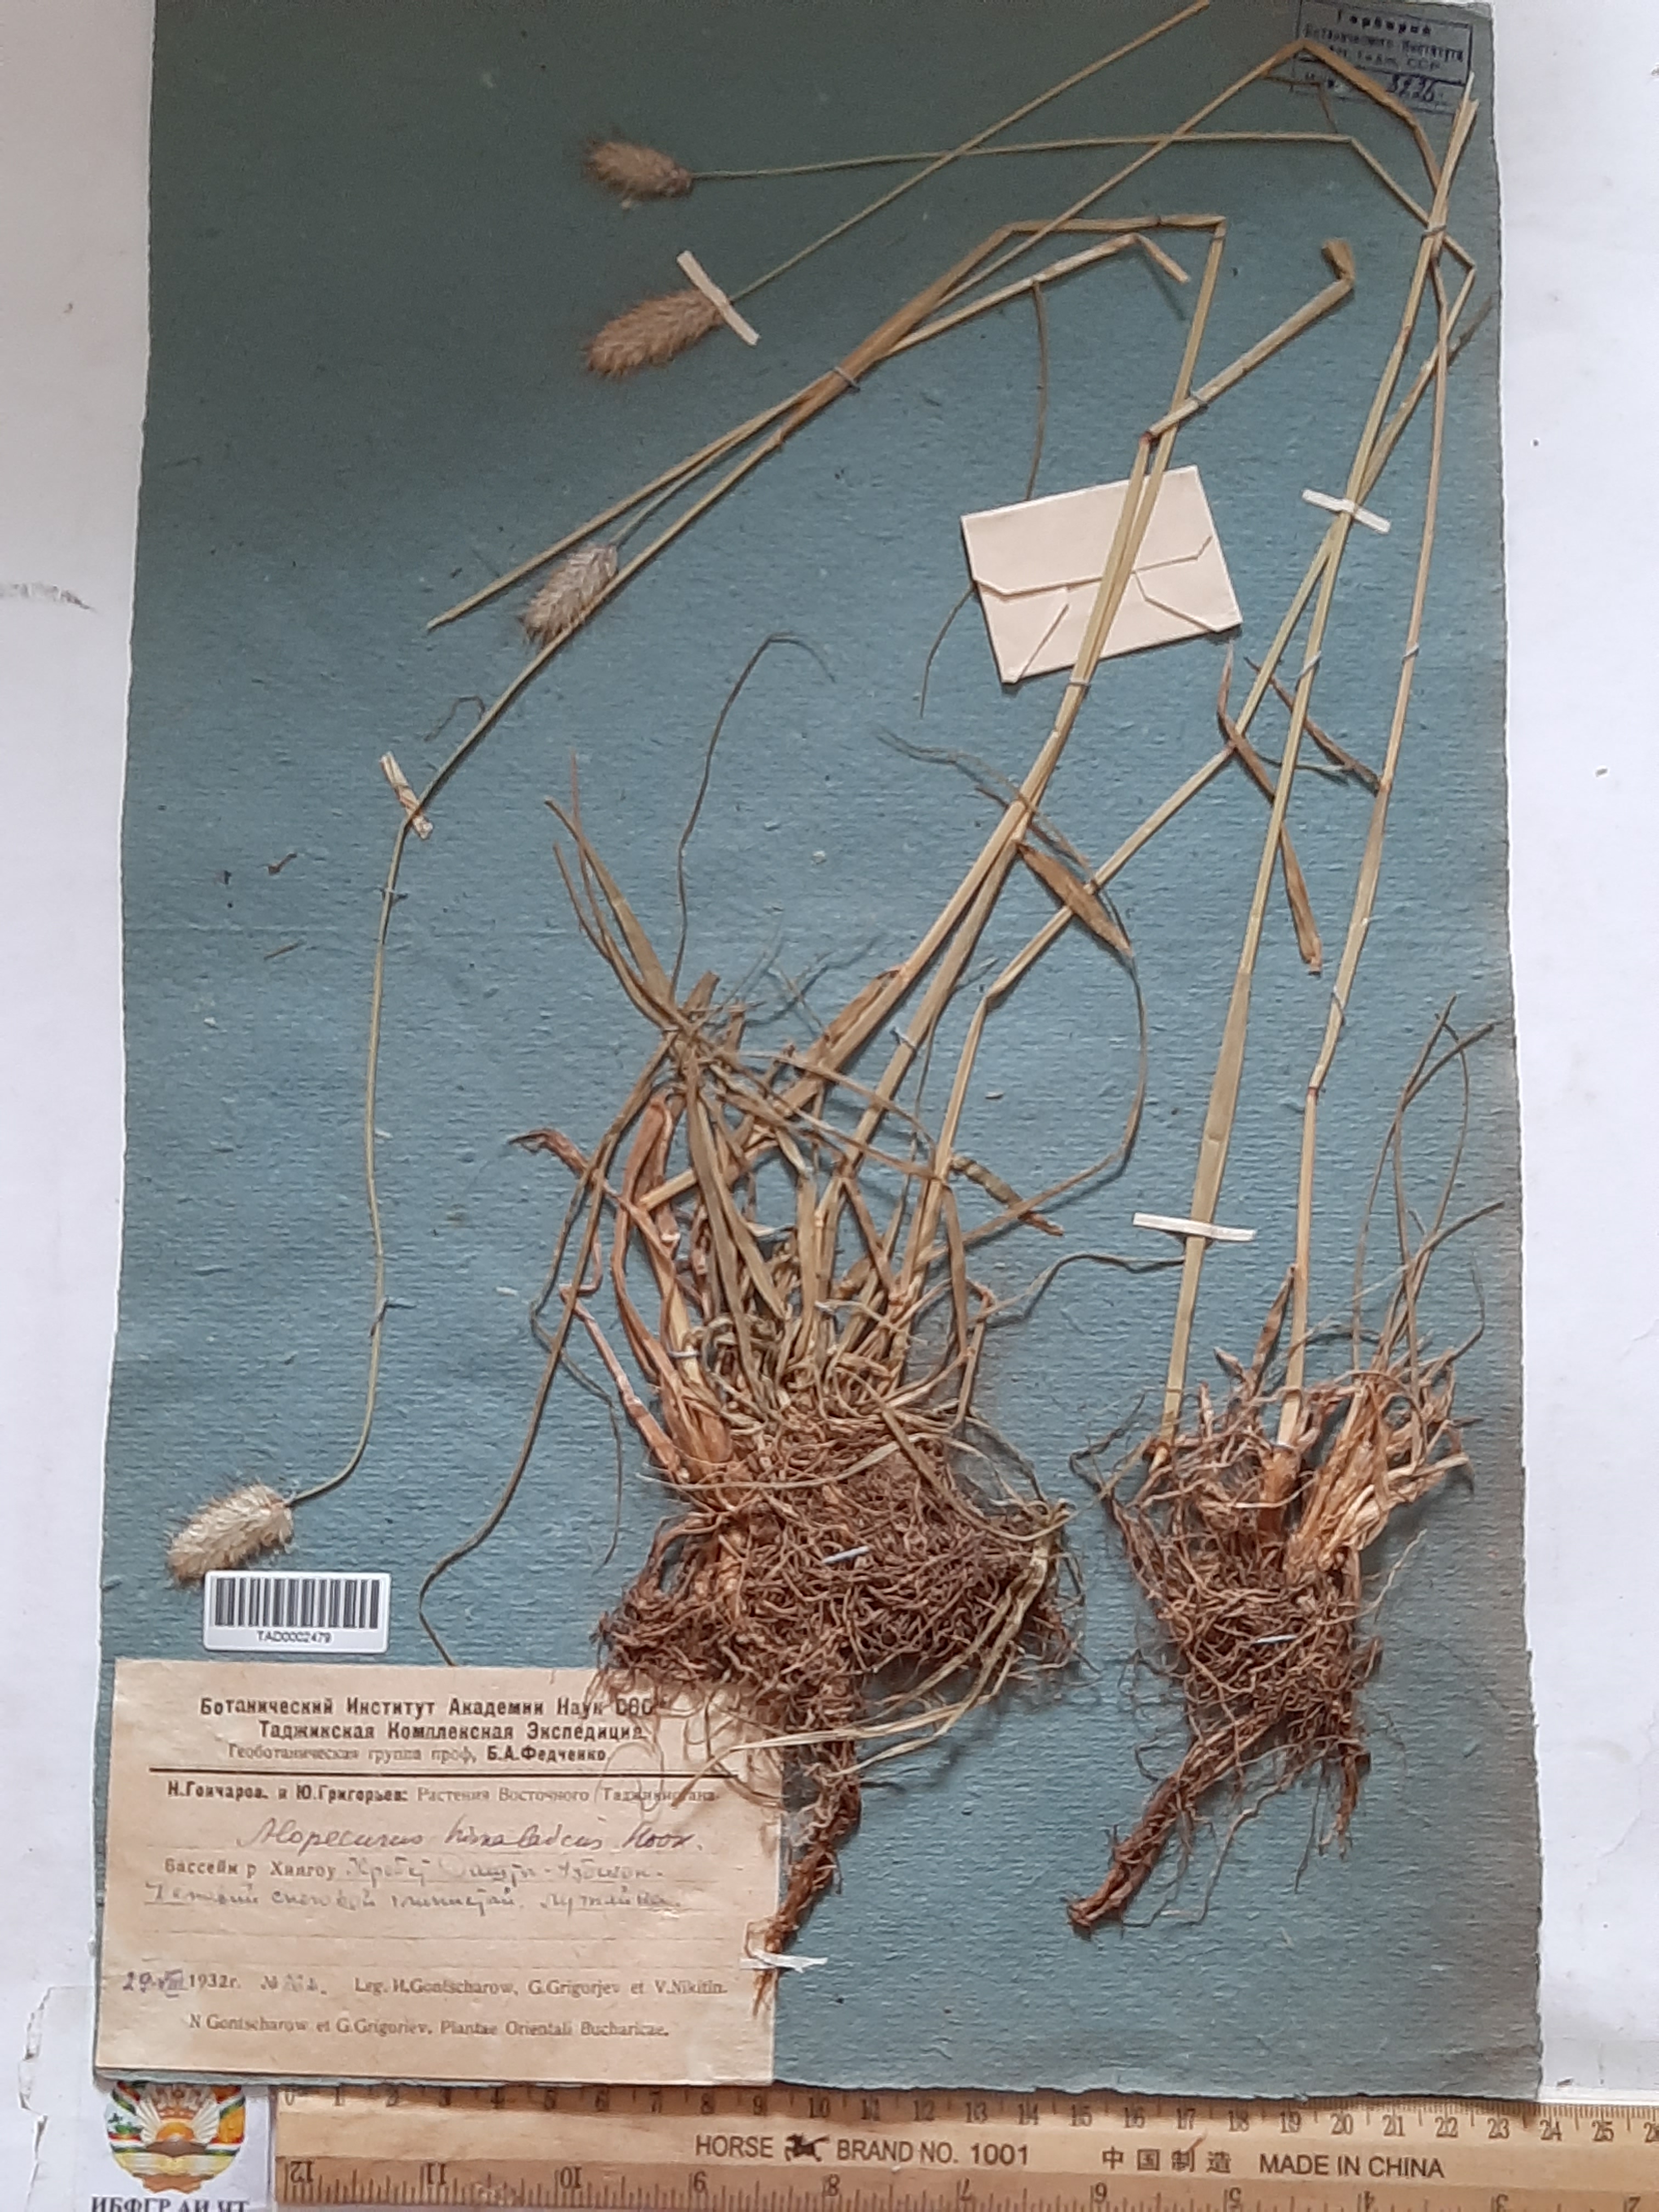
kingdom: Plantae
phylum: Tracheophyta
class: Liliopsida
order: Poales
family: Poaceae
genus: Alopecurus
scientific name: Alopecurus himalaicus
